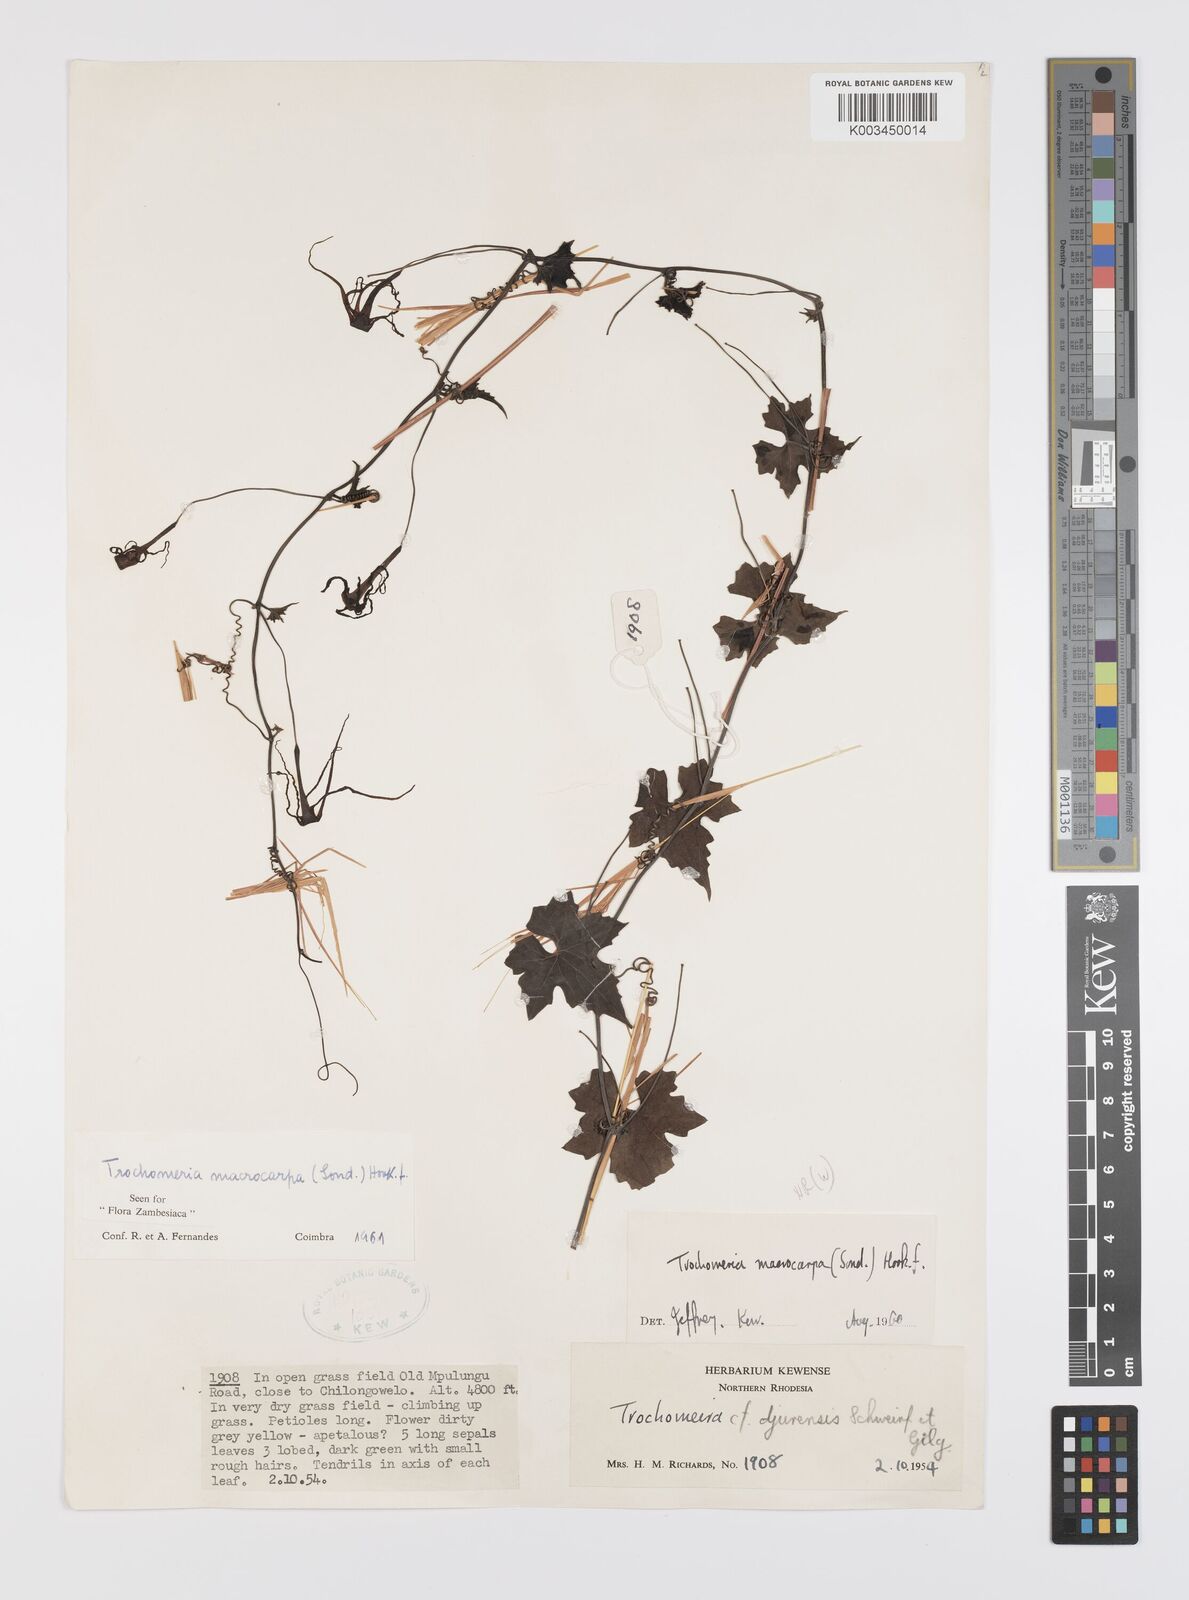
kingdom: Plantae
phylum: Tracheophyta
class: Magnoliopsida
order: Cucurbitales
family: Cucurbitaceae
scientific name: Cucurbitaceae
